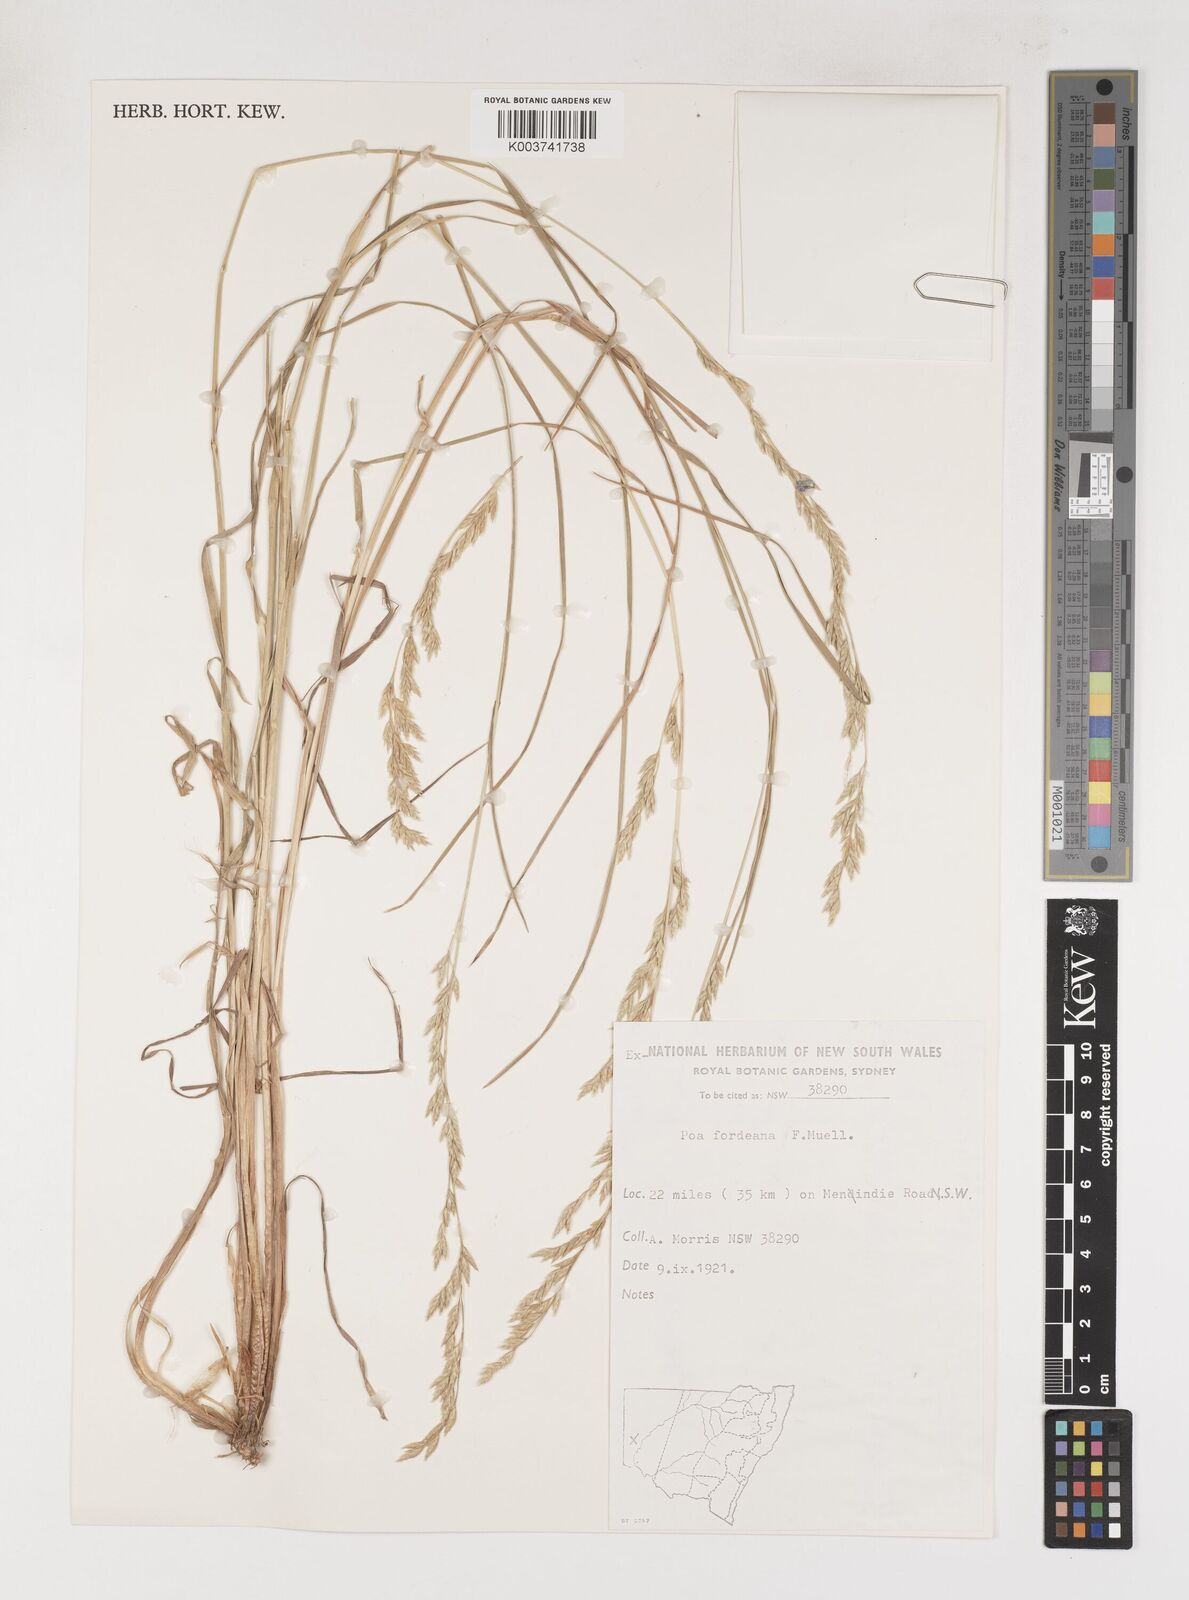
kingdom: Plantae
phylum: Tracheophyta
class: Liliopsida
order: Poales
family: Poaceae
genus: Poa
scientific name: Poa fordeana
